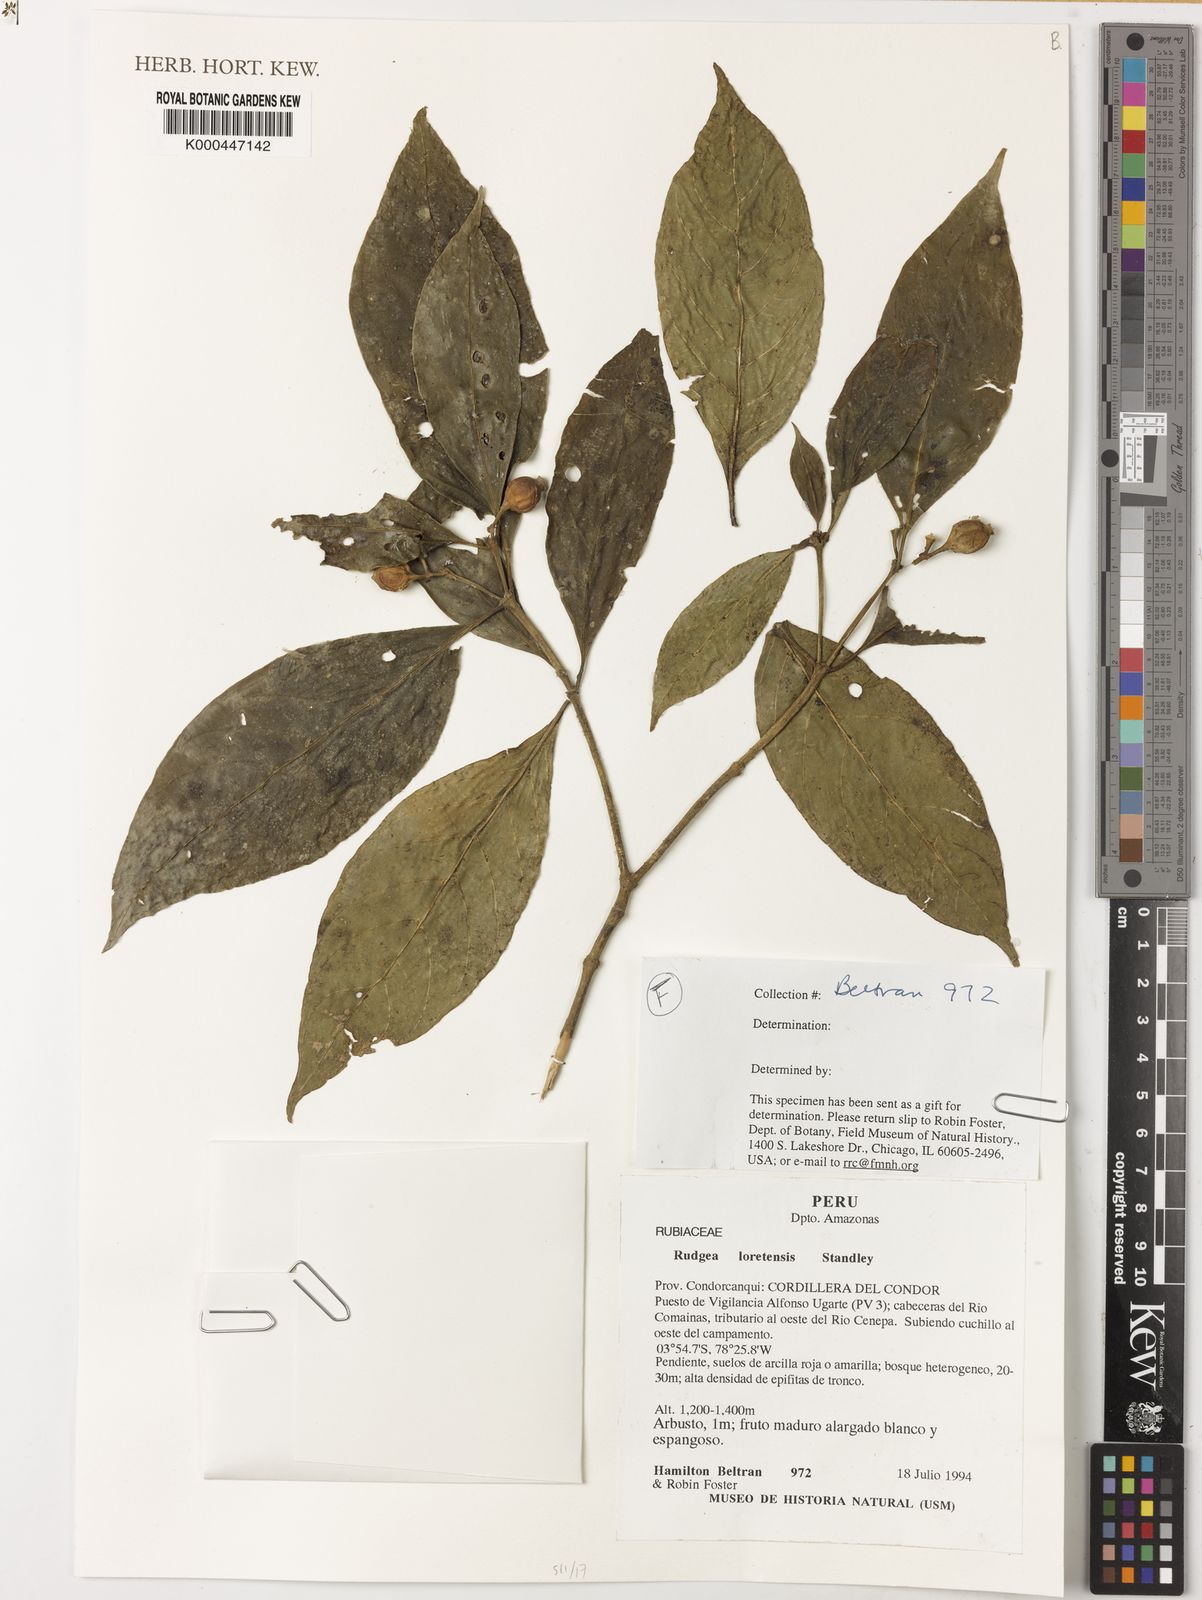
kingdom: Plantae
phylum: Tracheophyta
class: Magnoliopsida
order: Gentianales
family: Rubiaceae
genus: Rudgea
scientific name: Rudgea loretensis
